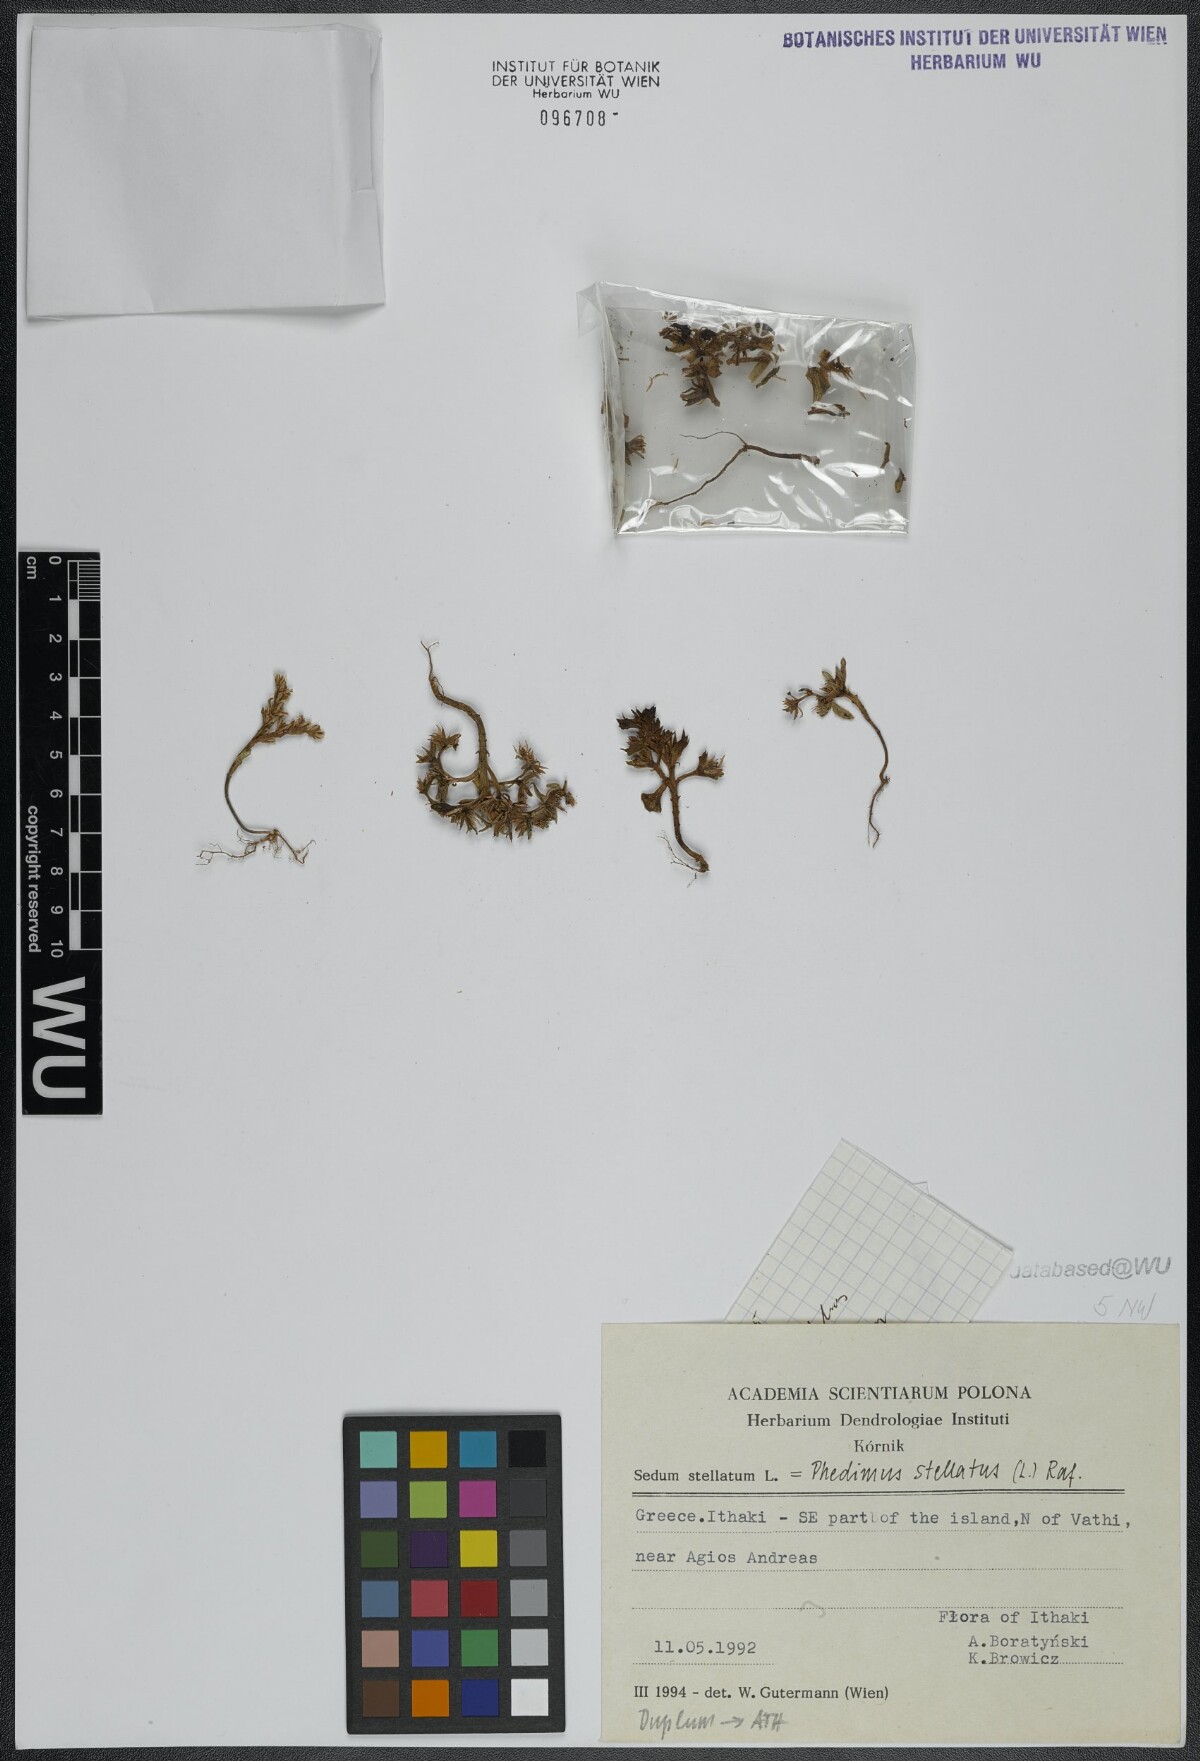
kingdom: Plantae
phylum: Tracheophyta
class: Magnoliopsida
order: Saxifragales
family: Crassulaceae
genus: Phedimus
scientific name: Phedimus stellatus
